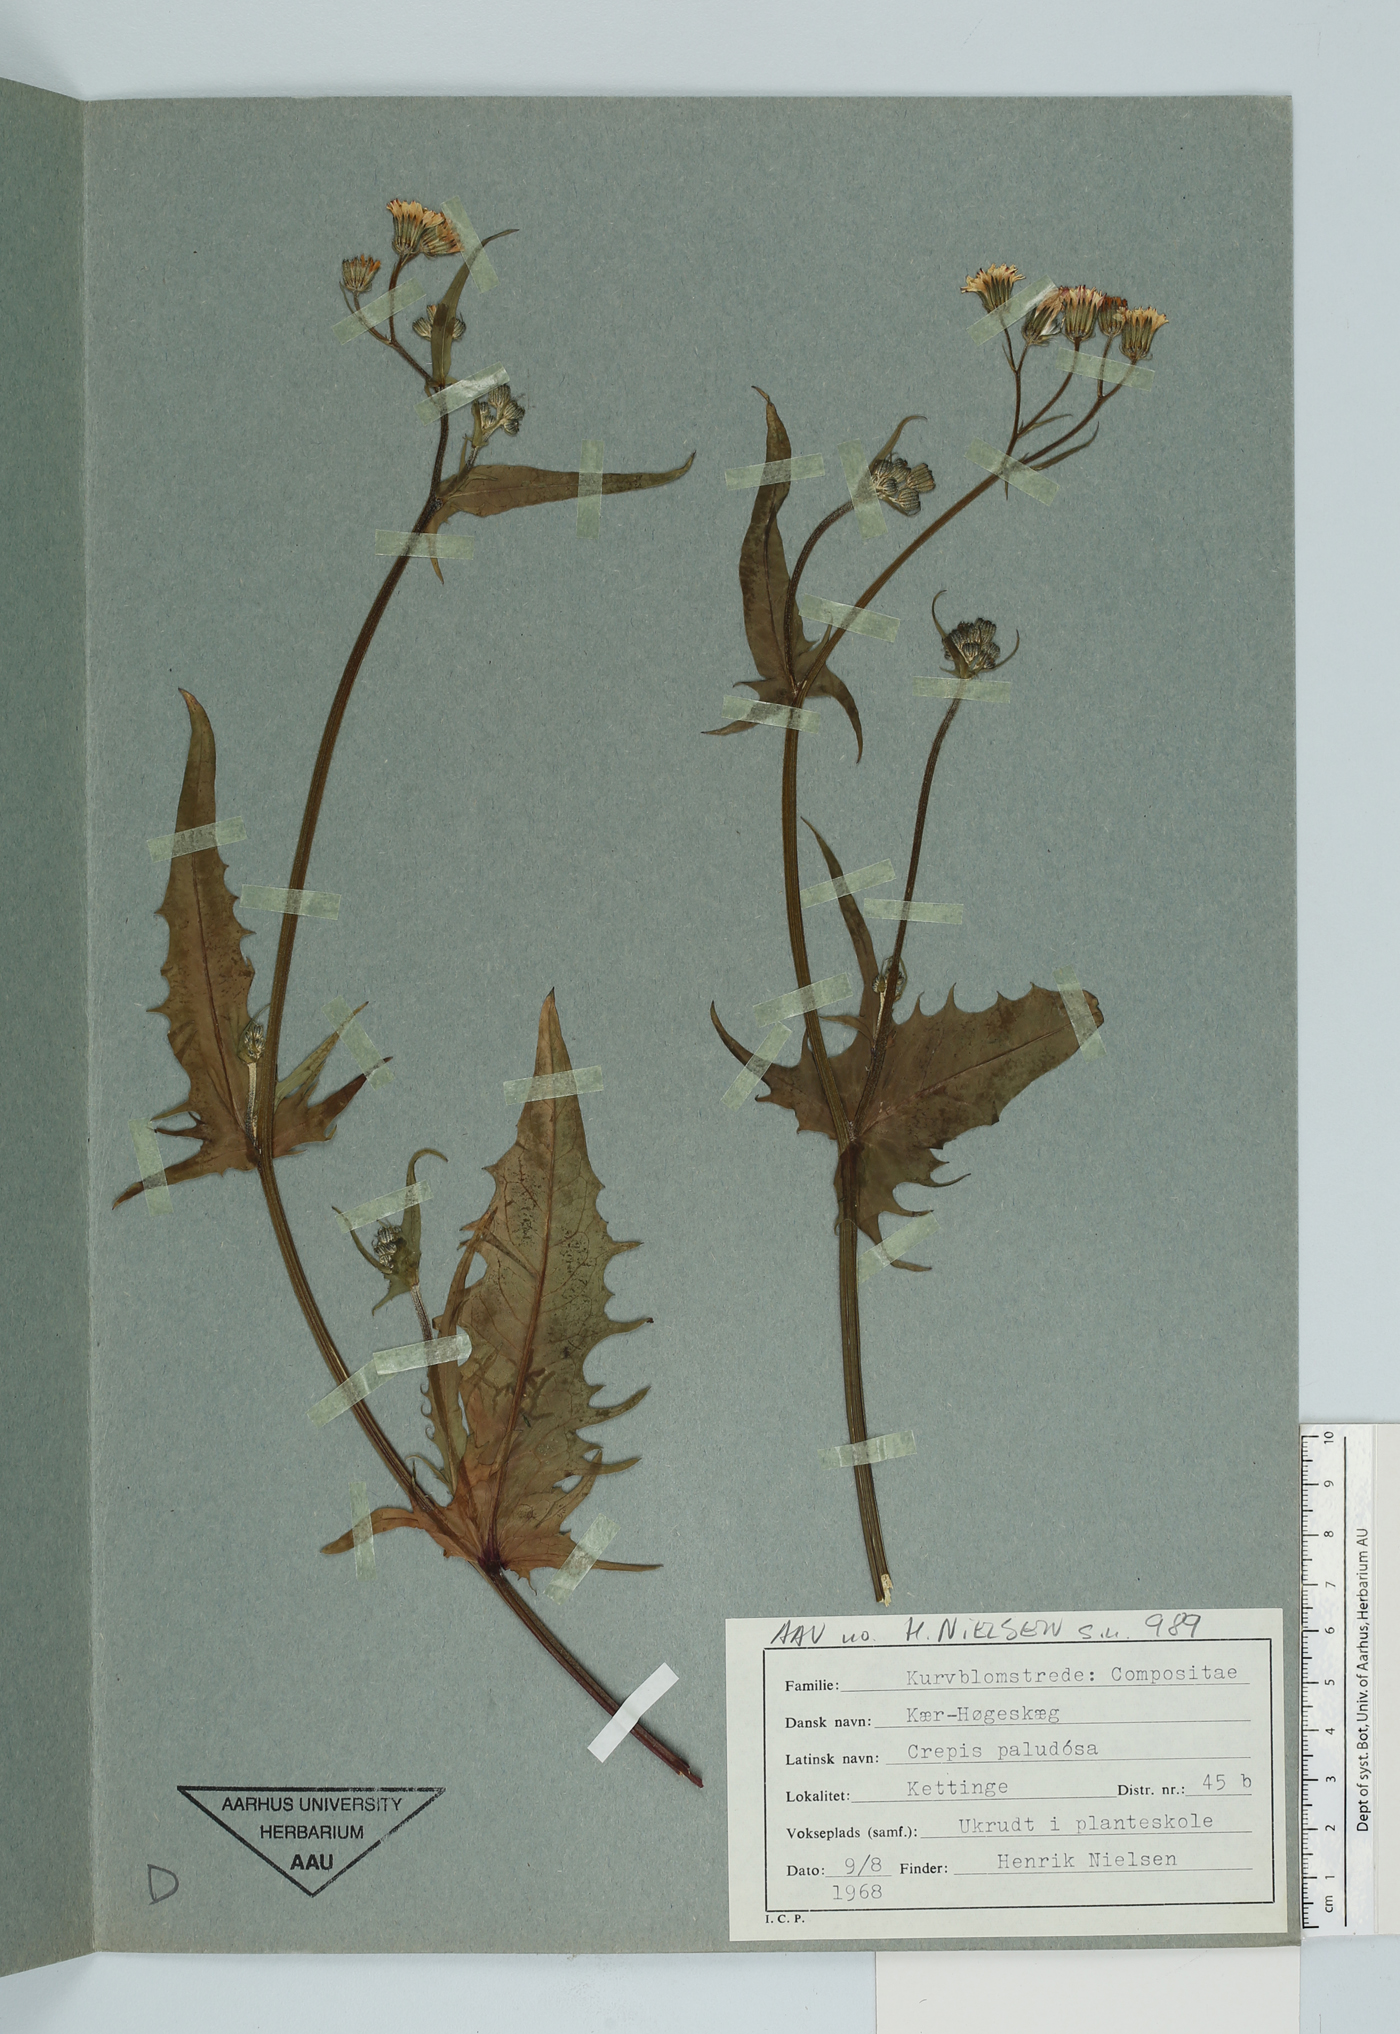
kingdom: Plantae
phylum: Tracheophyta
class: Magnoliopsida
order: Asterales
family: Asteraceae
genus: Crepis
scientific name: Crepis paludosa
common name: Marsh hawk's-beard
